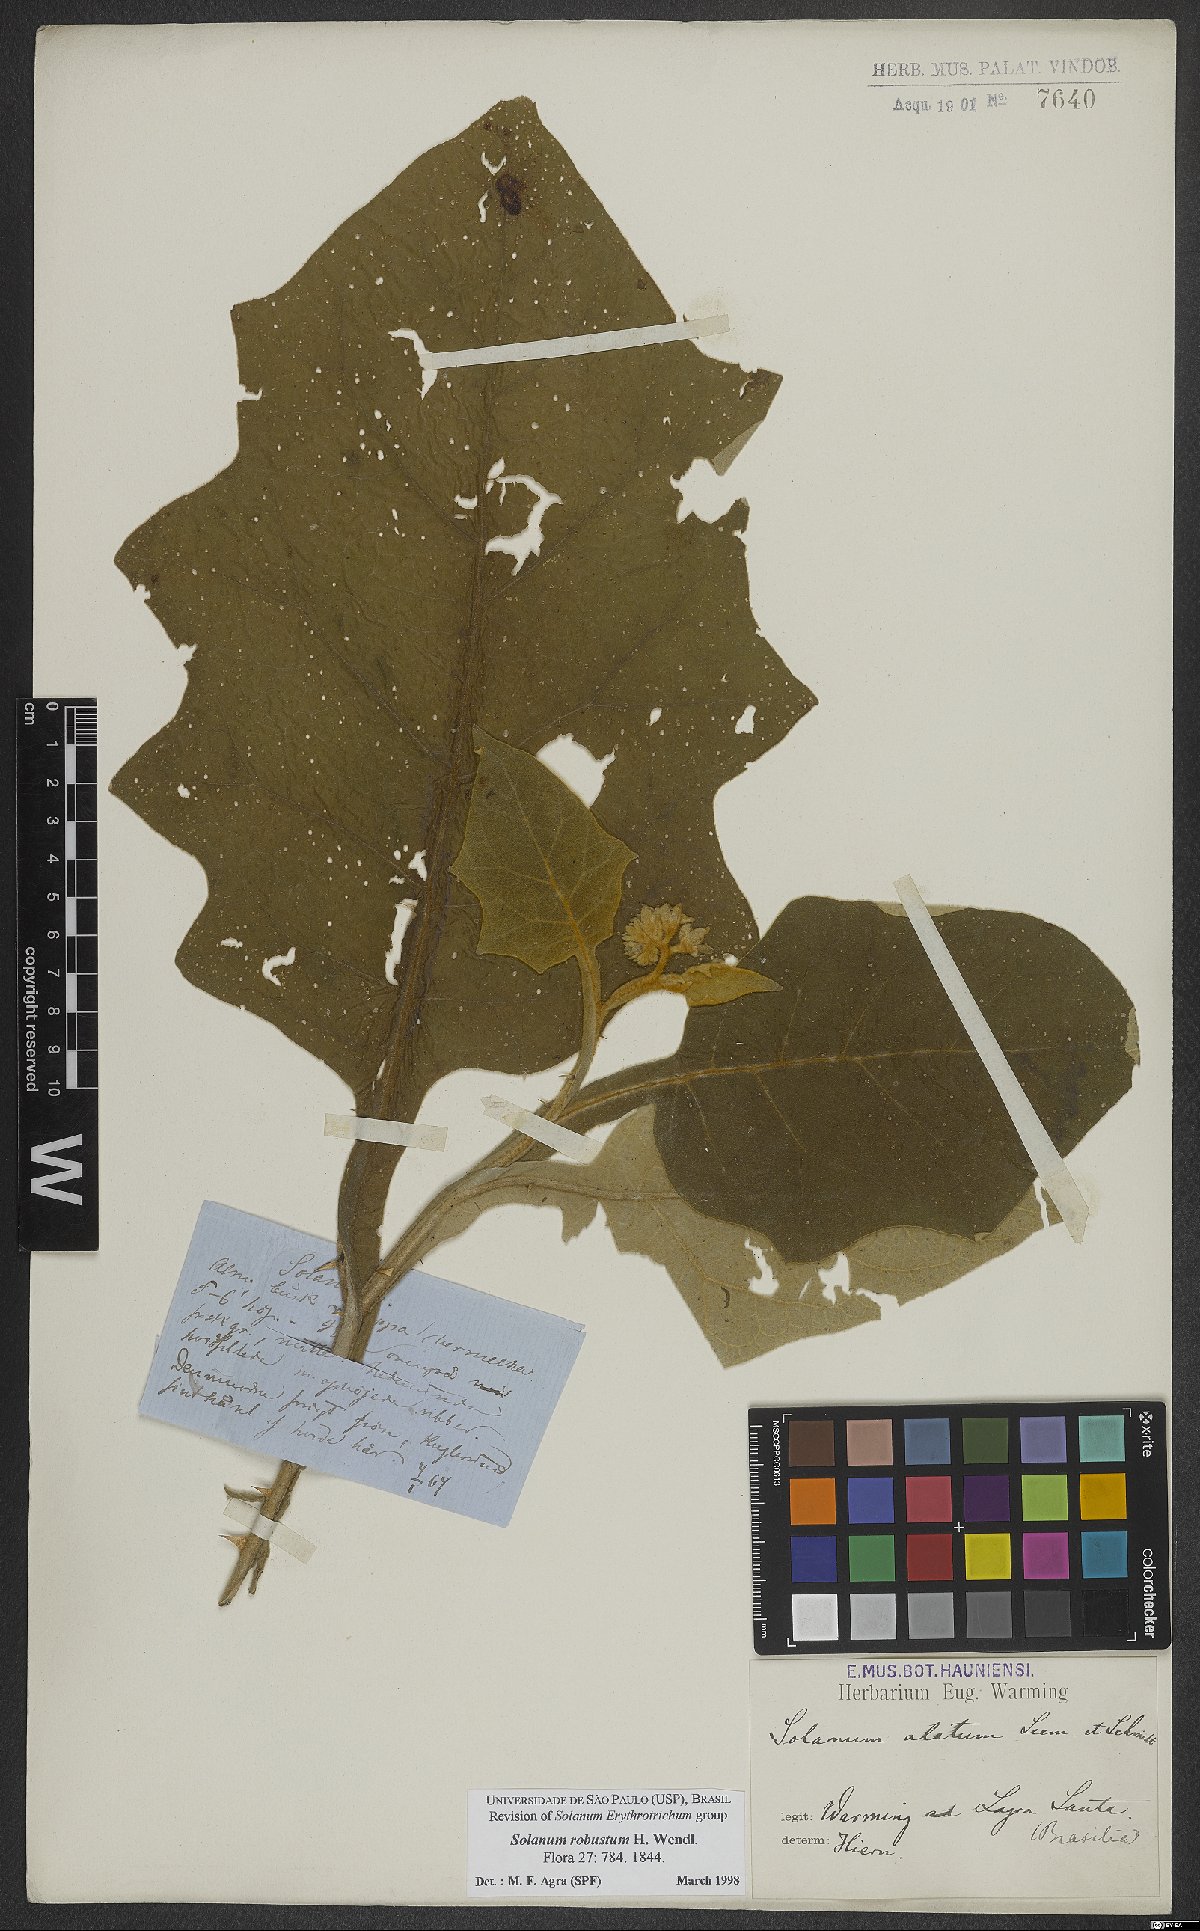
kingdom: Plantae
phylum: Tracheophyta
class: Magnoliopsida
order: Solanales
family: Solanaceae
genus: Solanum
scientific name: Solanum robustum
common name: Shrubby nightshade
